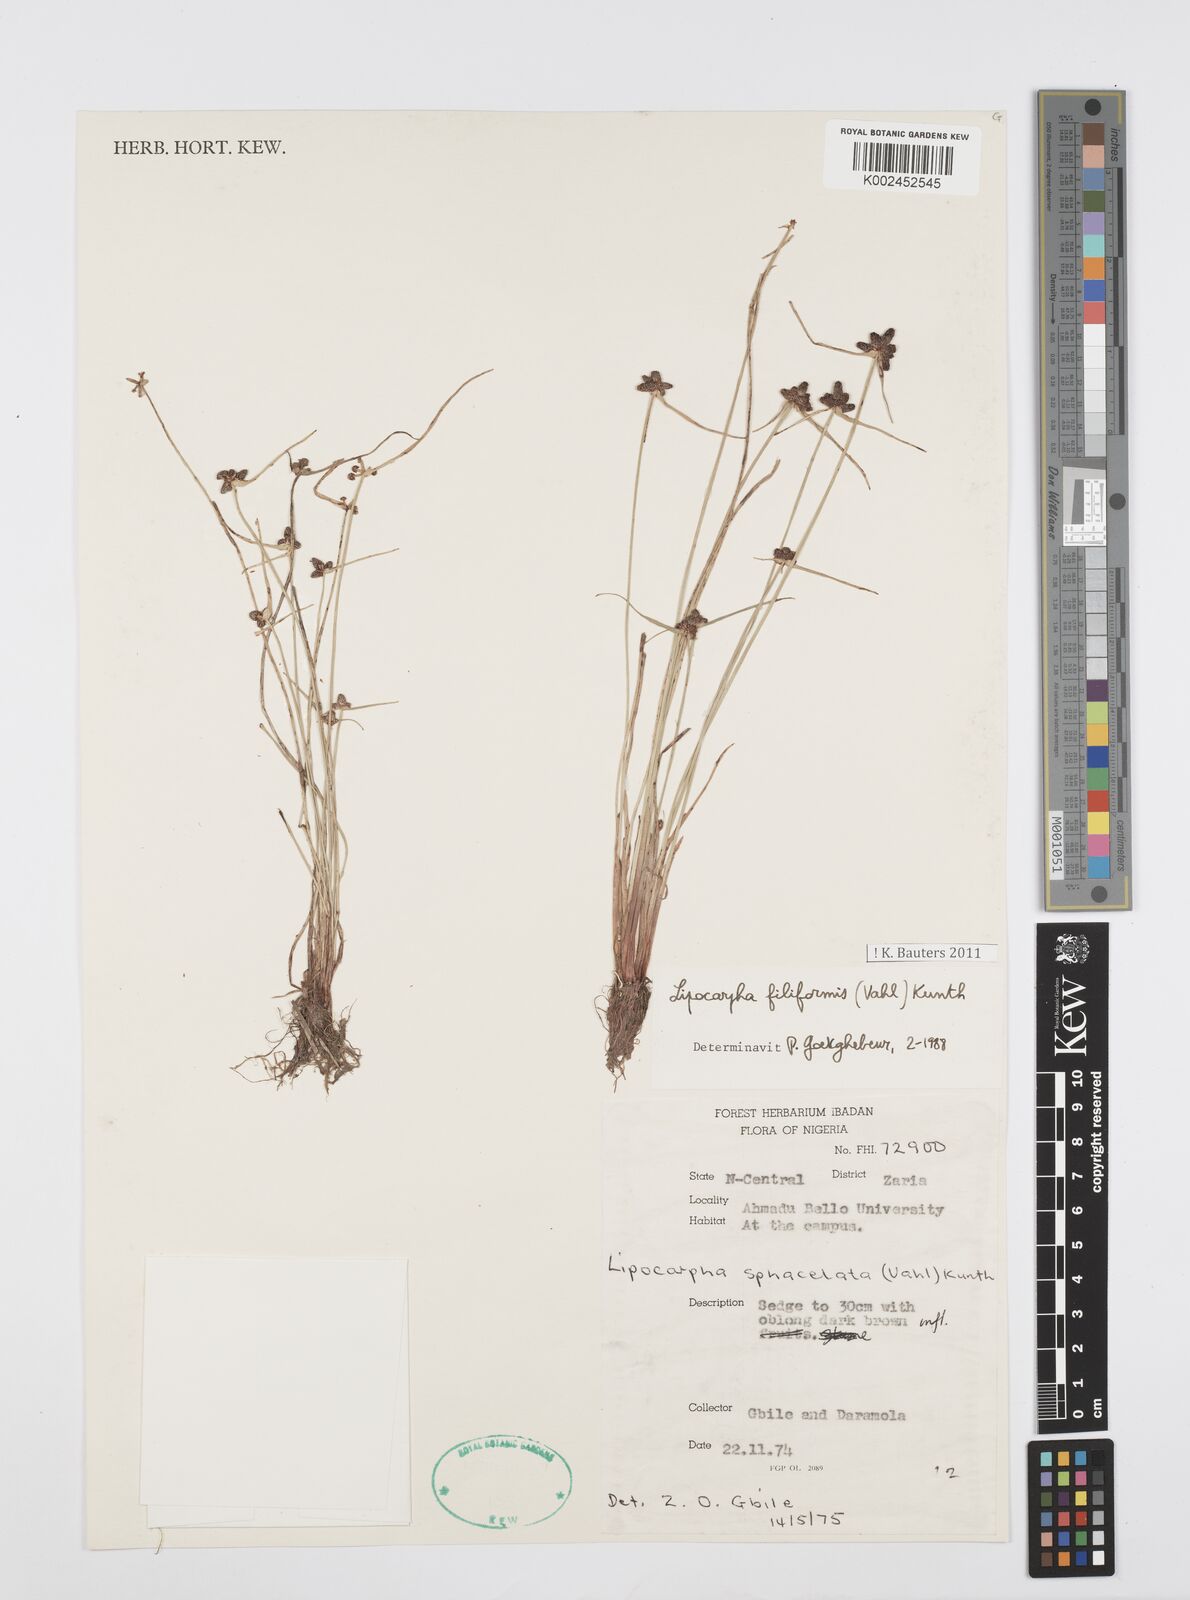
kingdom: Plantae
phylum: Tracheophyta
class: Liliopsida
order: Poales
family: Cyperaceae
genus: Cyperus
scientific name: Cyperus filiformis
